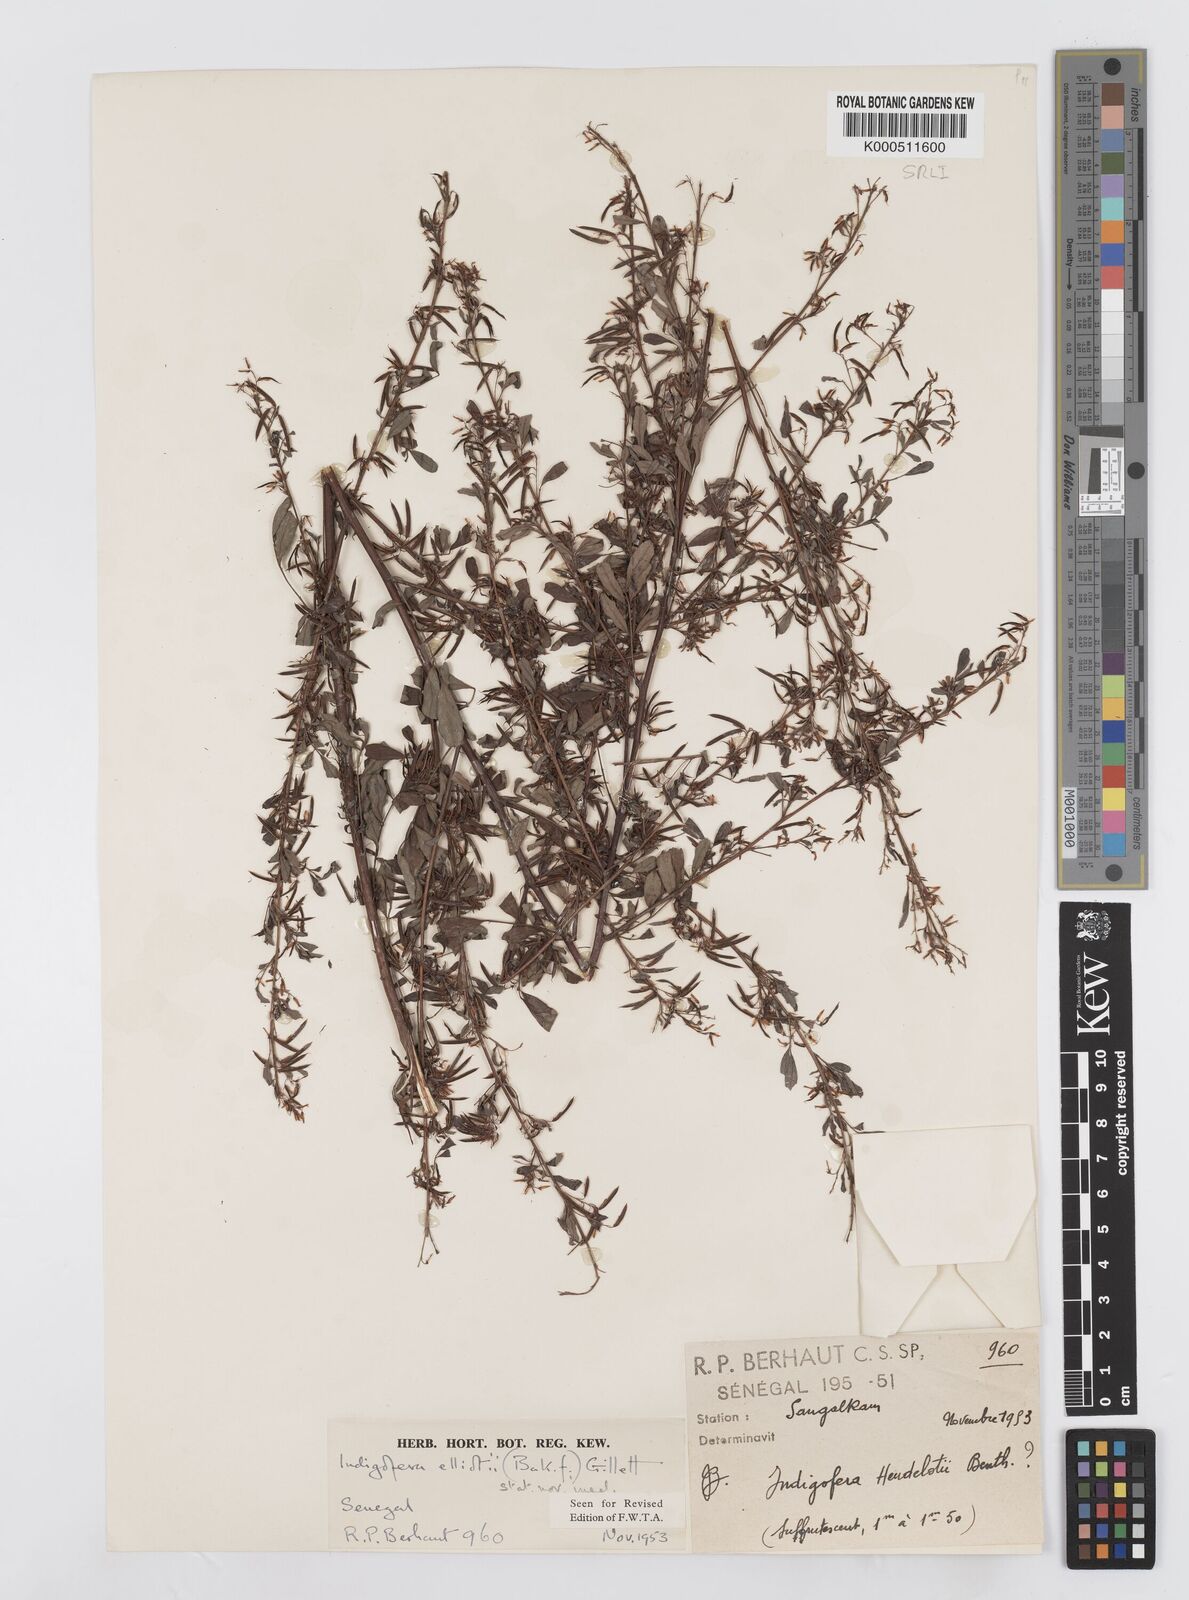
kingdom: Plantae
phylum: Tracheophyta
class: Magnoliopsida
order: Fabales
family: Fabaceae
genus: Indigofera
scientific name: Indigofera elliotii
